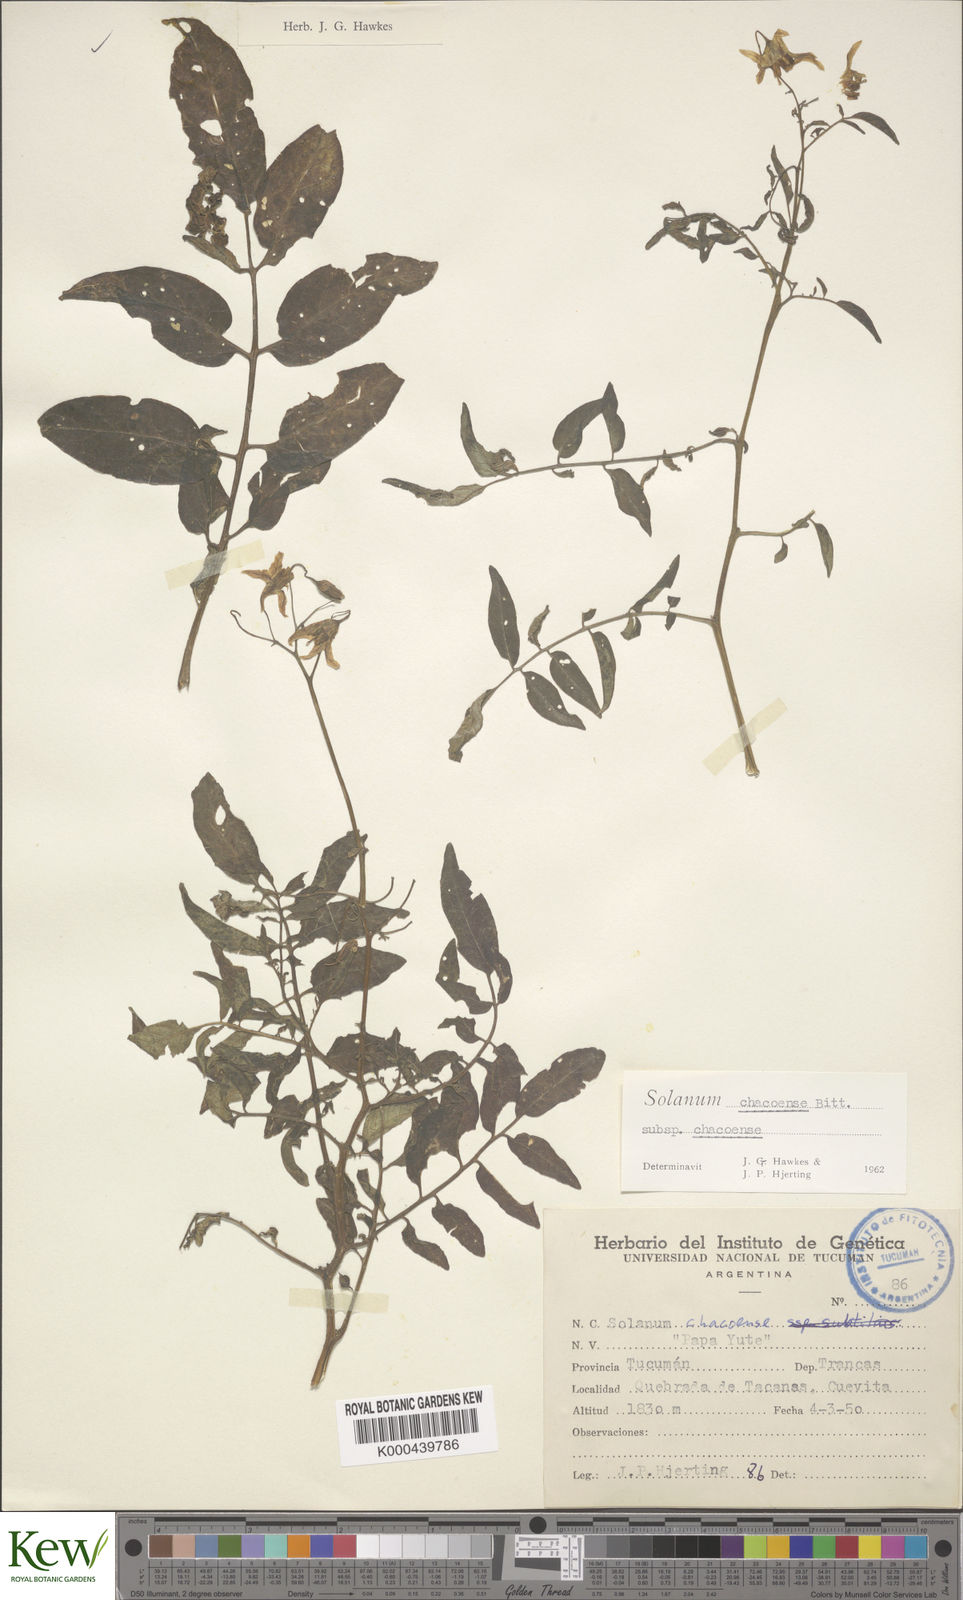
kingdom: Plantae
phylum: Tracheophyta
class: Magnoliopsida
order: Solanales
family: Solanaceae
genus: Solanum
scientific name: Solanum chacoense
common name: Chaco potato
